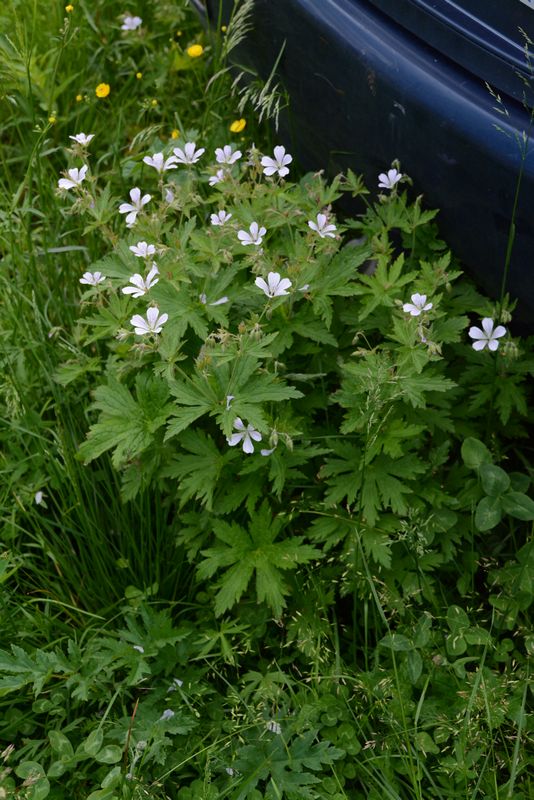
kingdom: Plantae
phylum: Tracheophyta
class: Magnoliopsida
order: Geraniales
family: Geraniaceae
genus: Geranium
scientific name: Geranium sylvaticum
